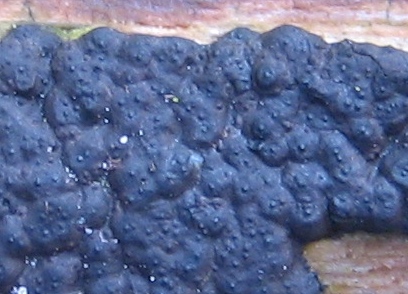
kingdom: Fungi
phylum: Ascomycota
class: Sordariomycetes
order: Xylariales
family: Xylariaceae
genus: Nemania
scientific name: Nemania
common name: kuldyne
